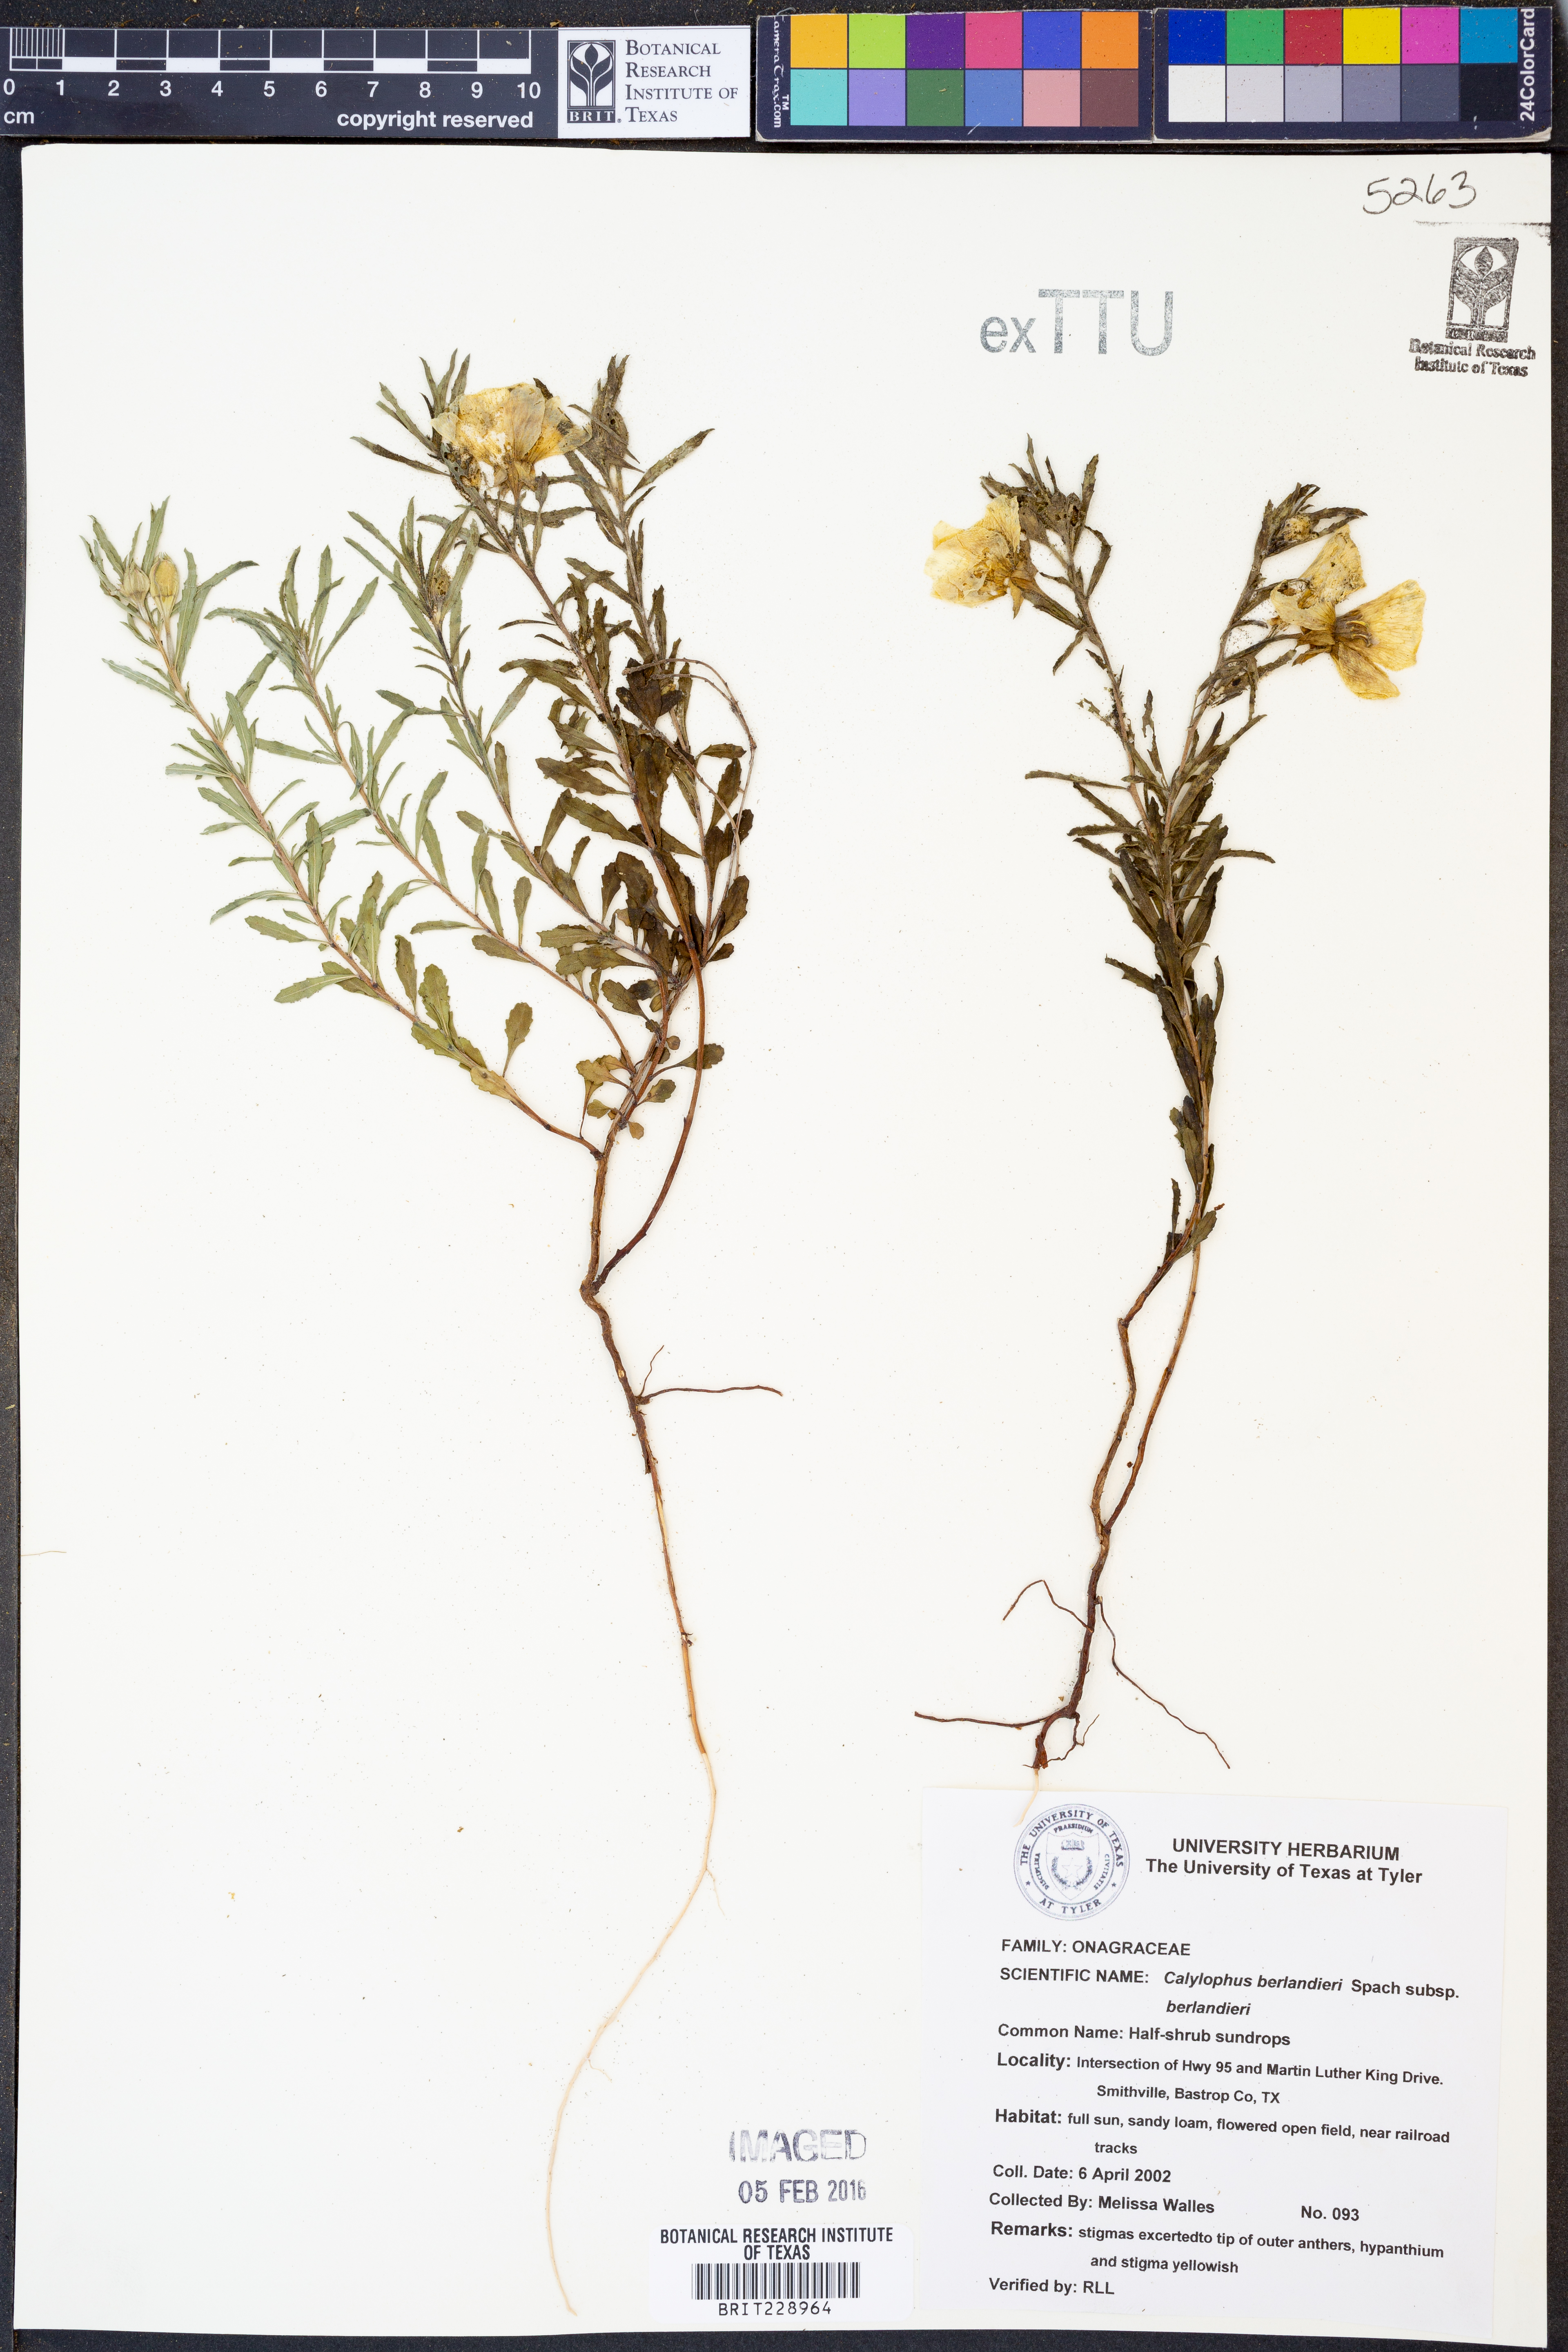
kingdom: Plantae
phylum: Tracheophyta
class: Magnoliopsida
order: Myrtales
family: Onagraceae
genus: Oenothera
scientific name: Oenothera capillifolia
